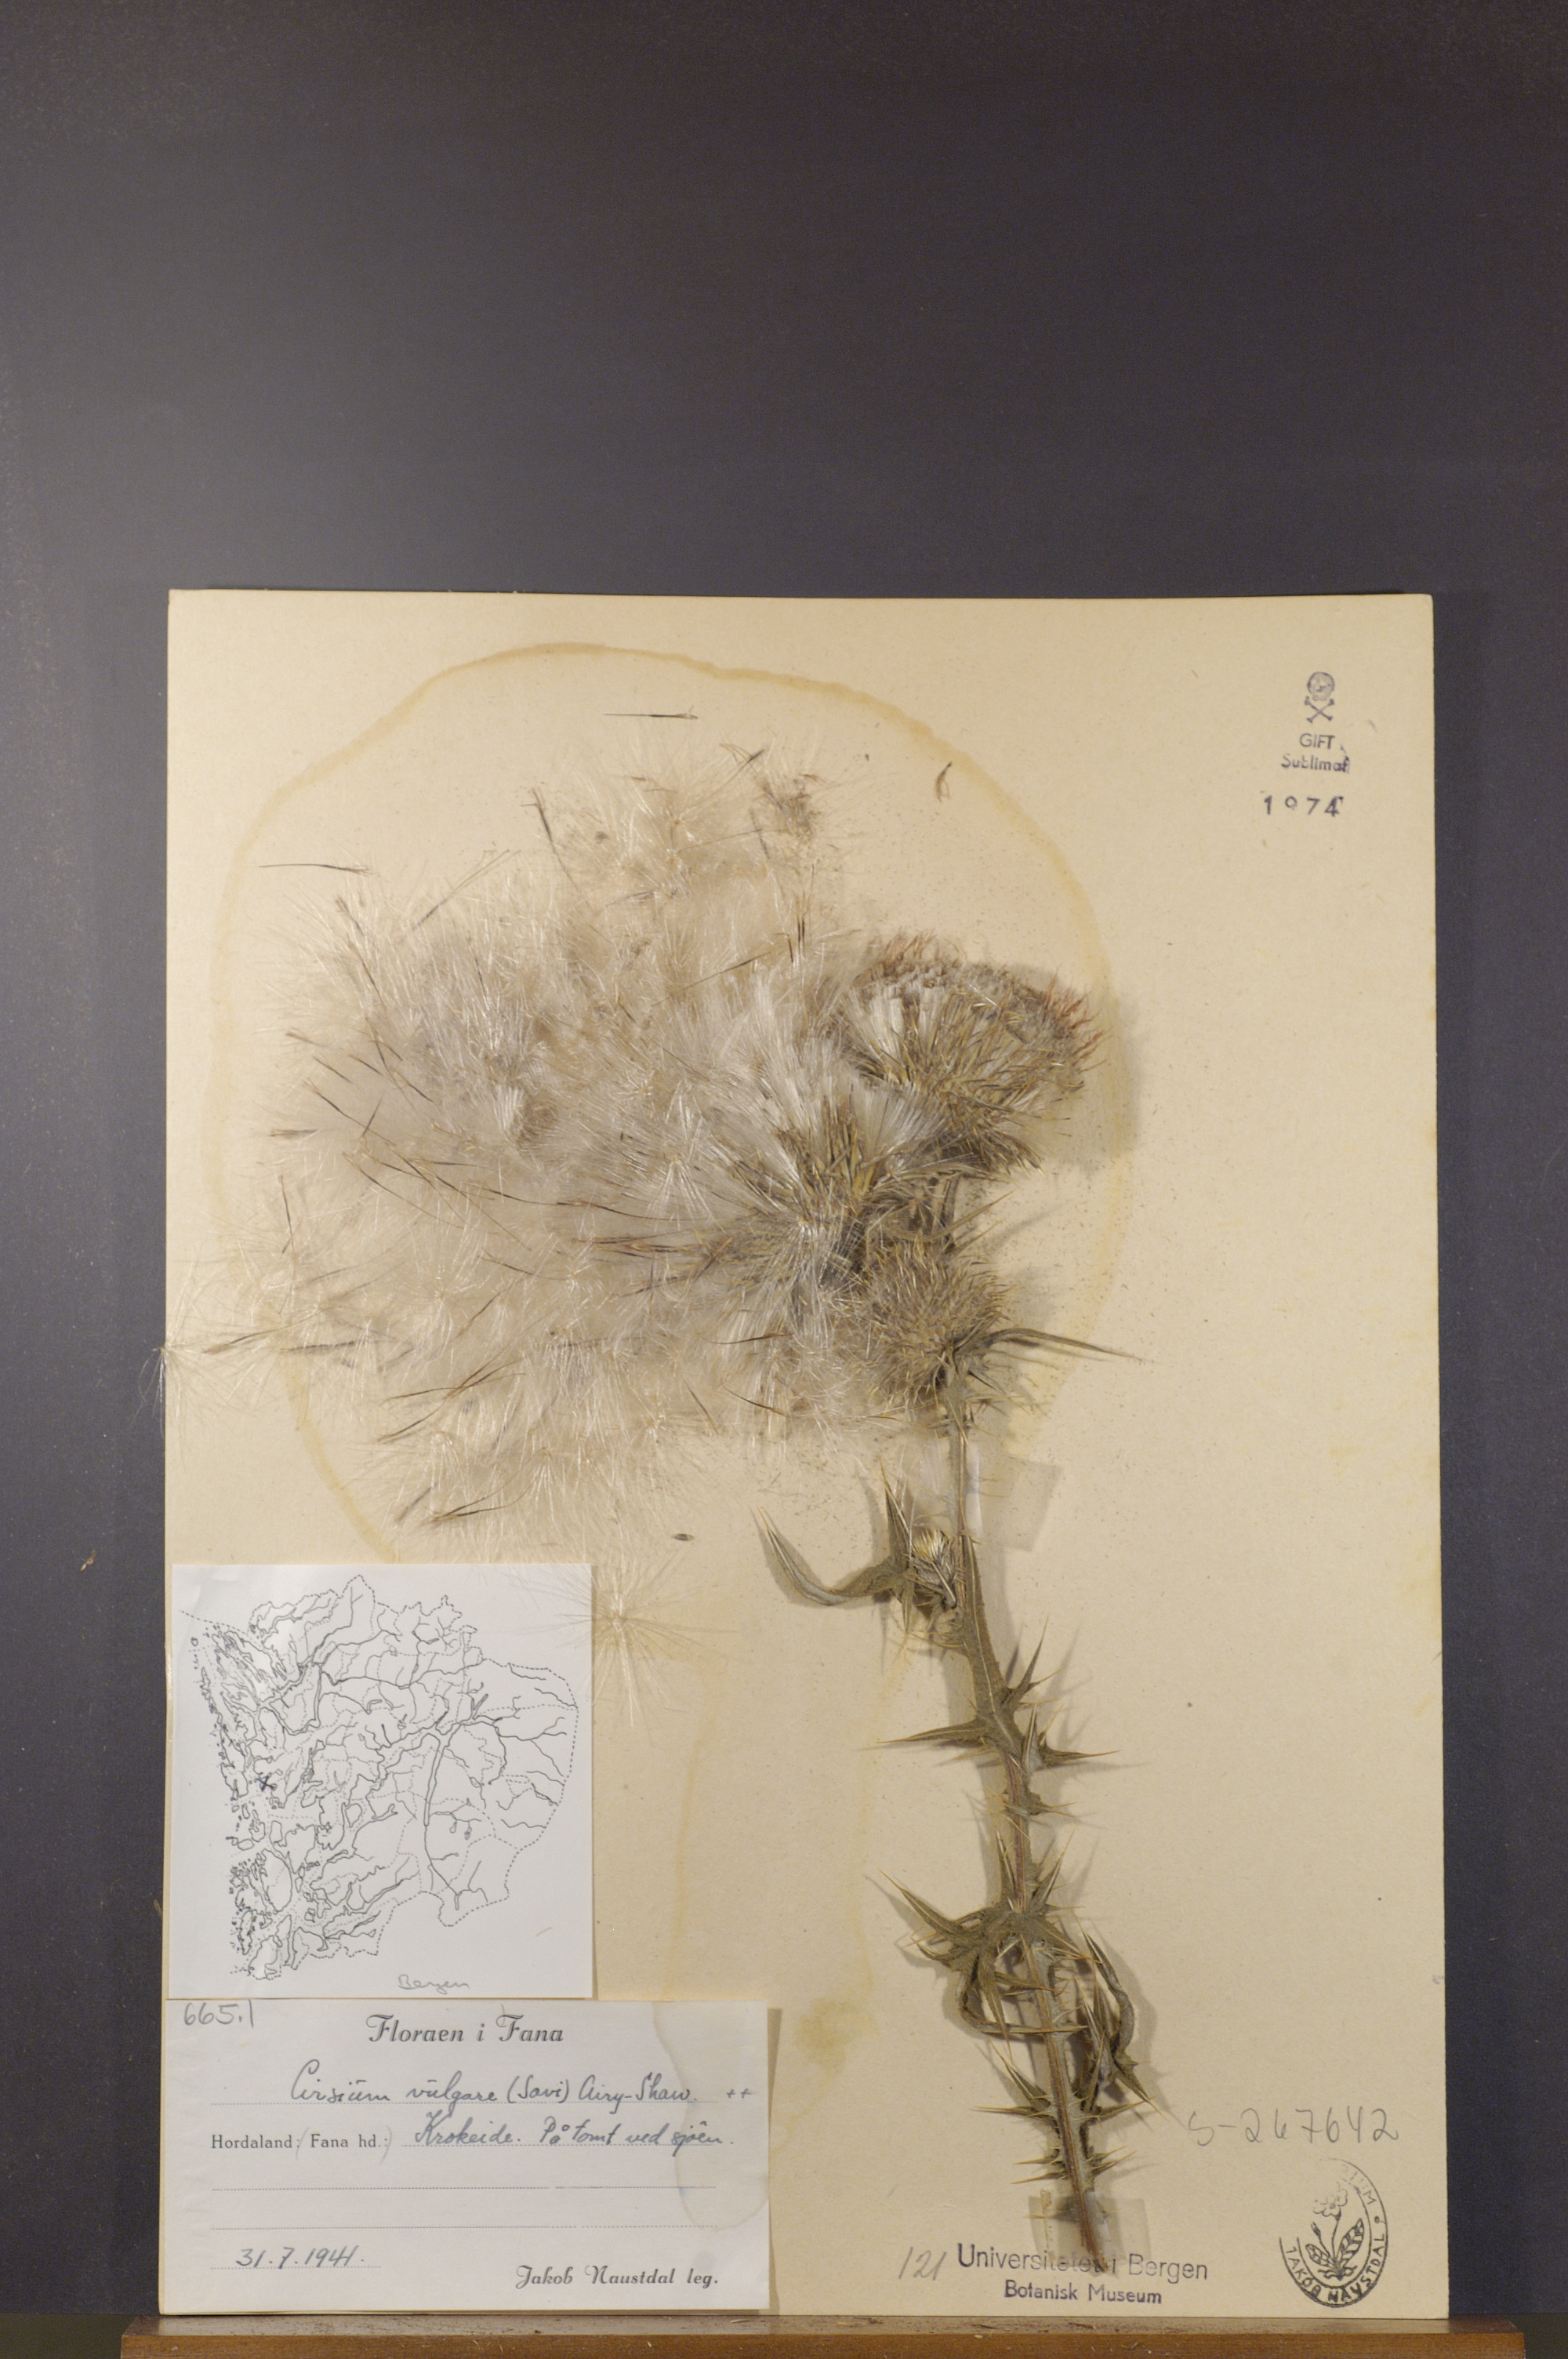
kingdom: Plantae
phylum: Tracheophyta
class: Magnoliopsida
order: Asterales
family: Asteraceae
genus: Cirsium
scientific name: Cirsium vulgare
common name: Bull thistle
